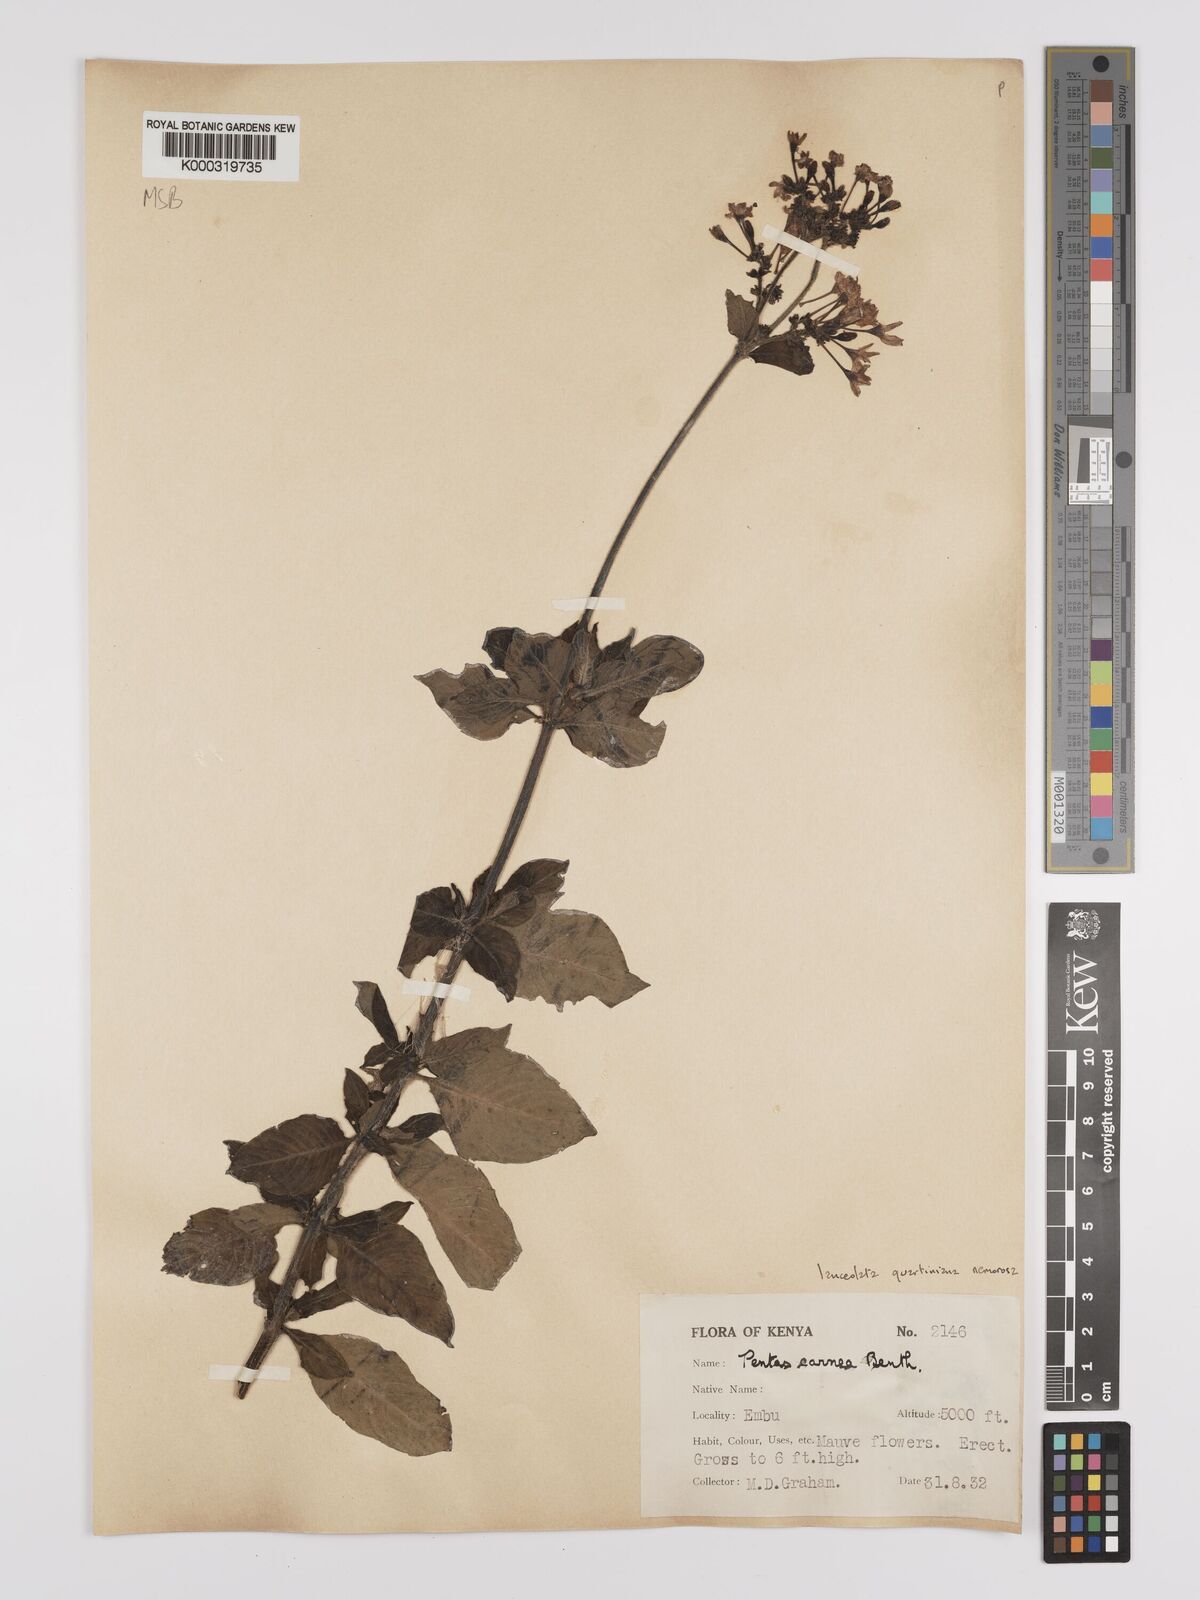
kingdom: Plantae
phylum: Tracheophyta
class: Magnoliopsida
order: Gentianales
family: Rubiaceae
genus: Pentas
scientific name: Pentas lanceolata
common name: Egyptian starcluster
